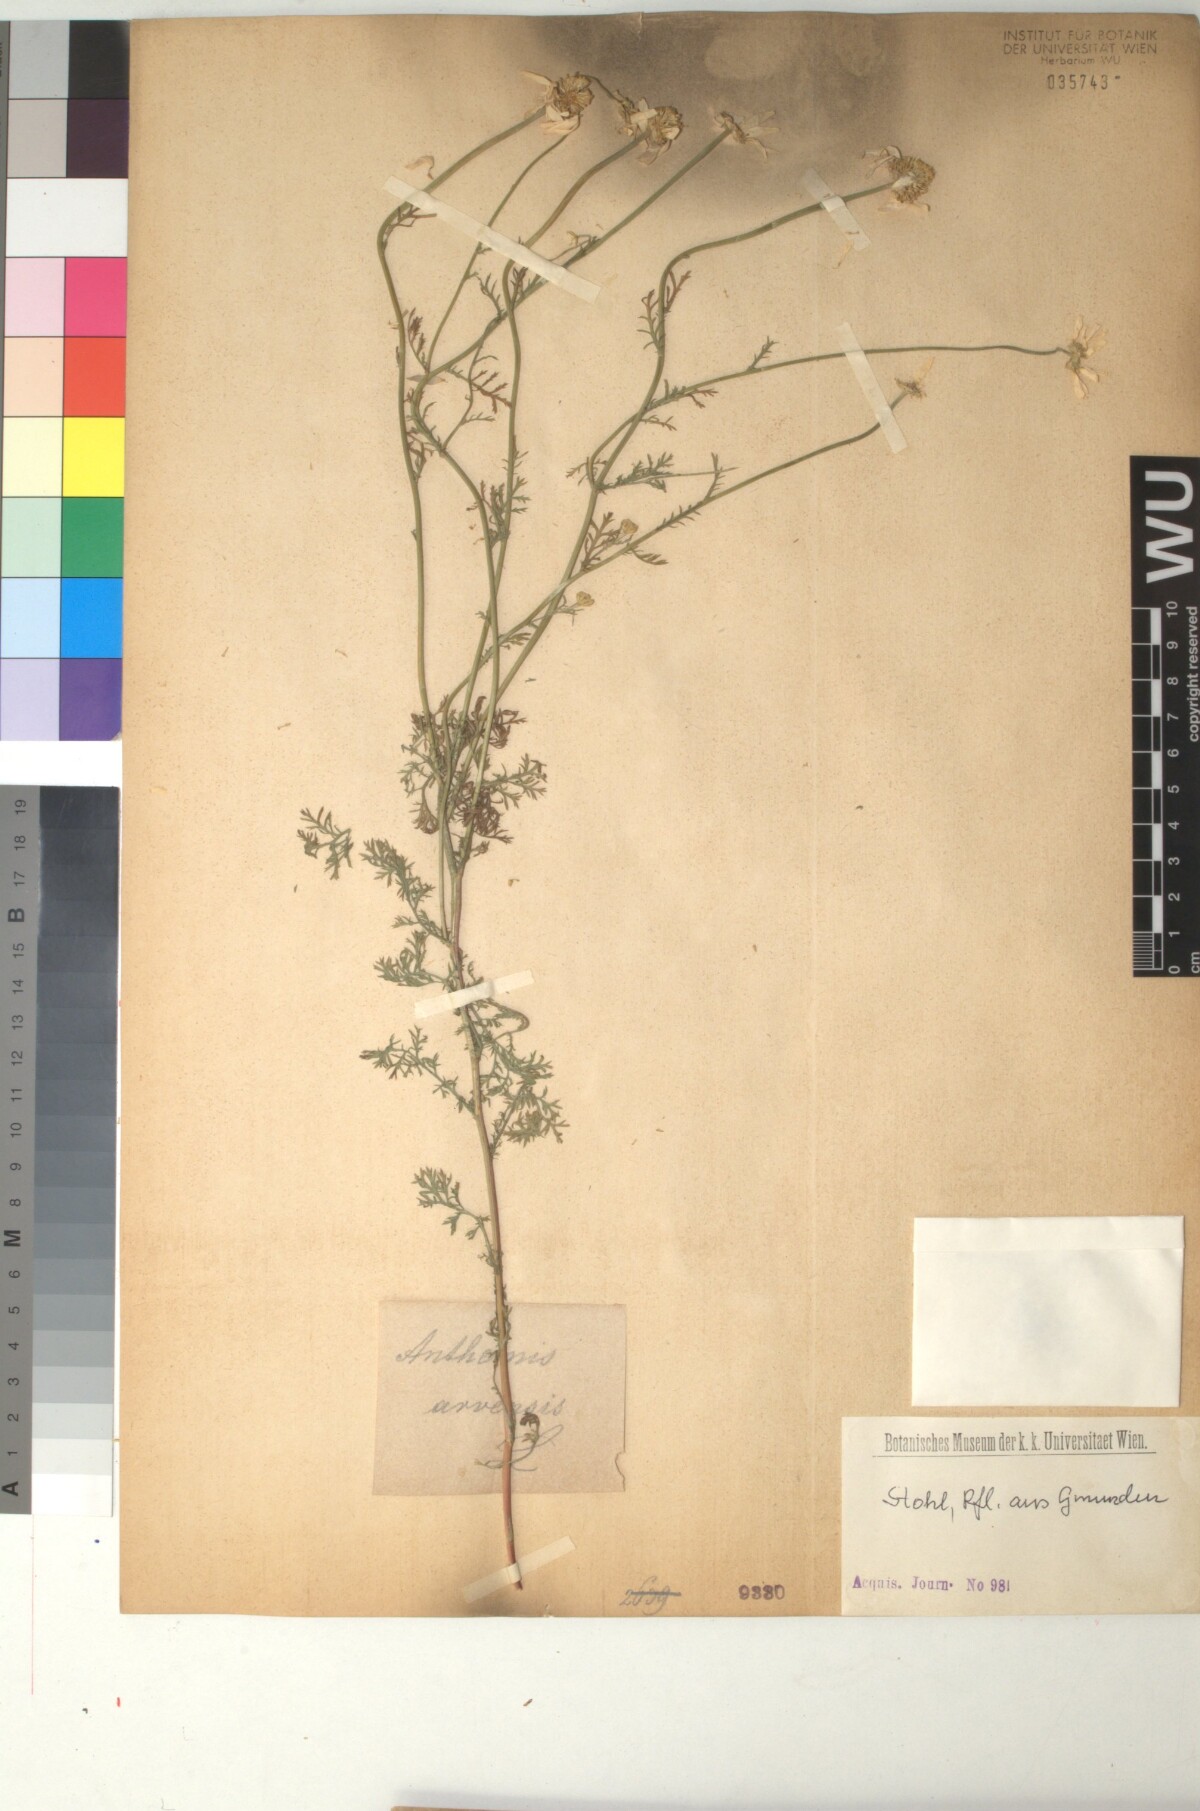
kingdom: Plantae
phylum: Tracheophyta
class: Magnoliopsida
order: Asterales
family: Asteraceae
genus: Anthemis
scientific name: Anthemis arvensis
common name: Corn chamomile
